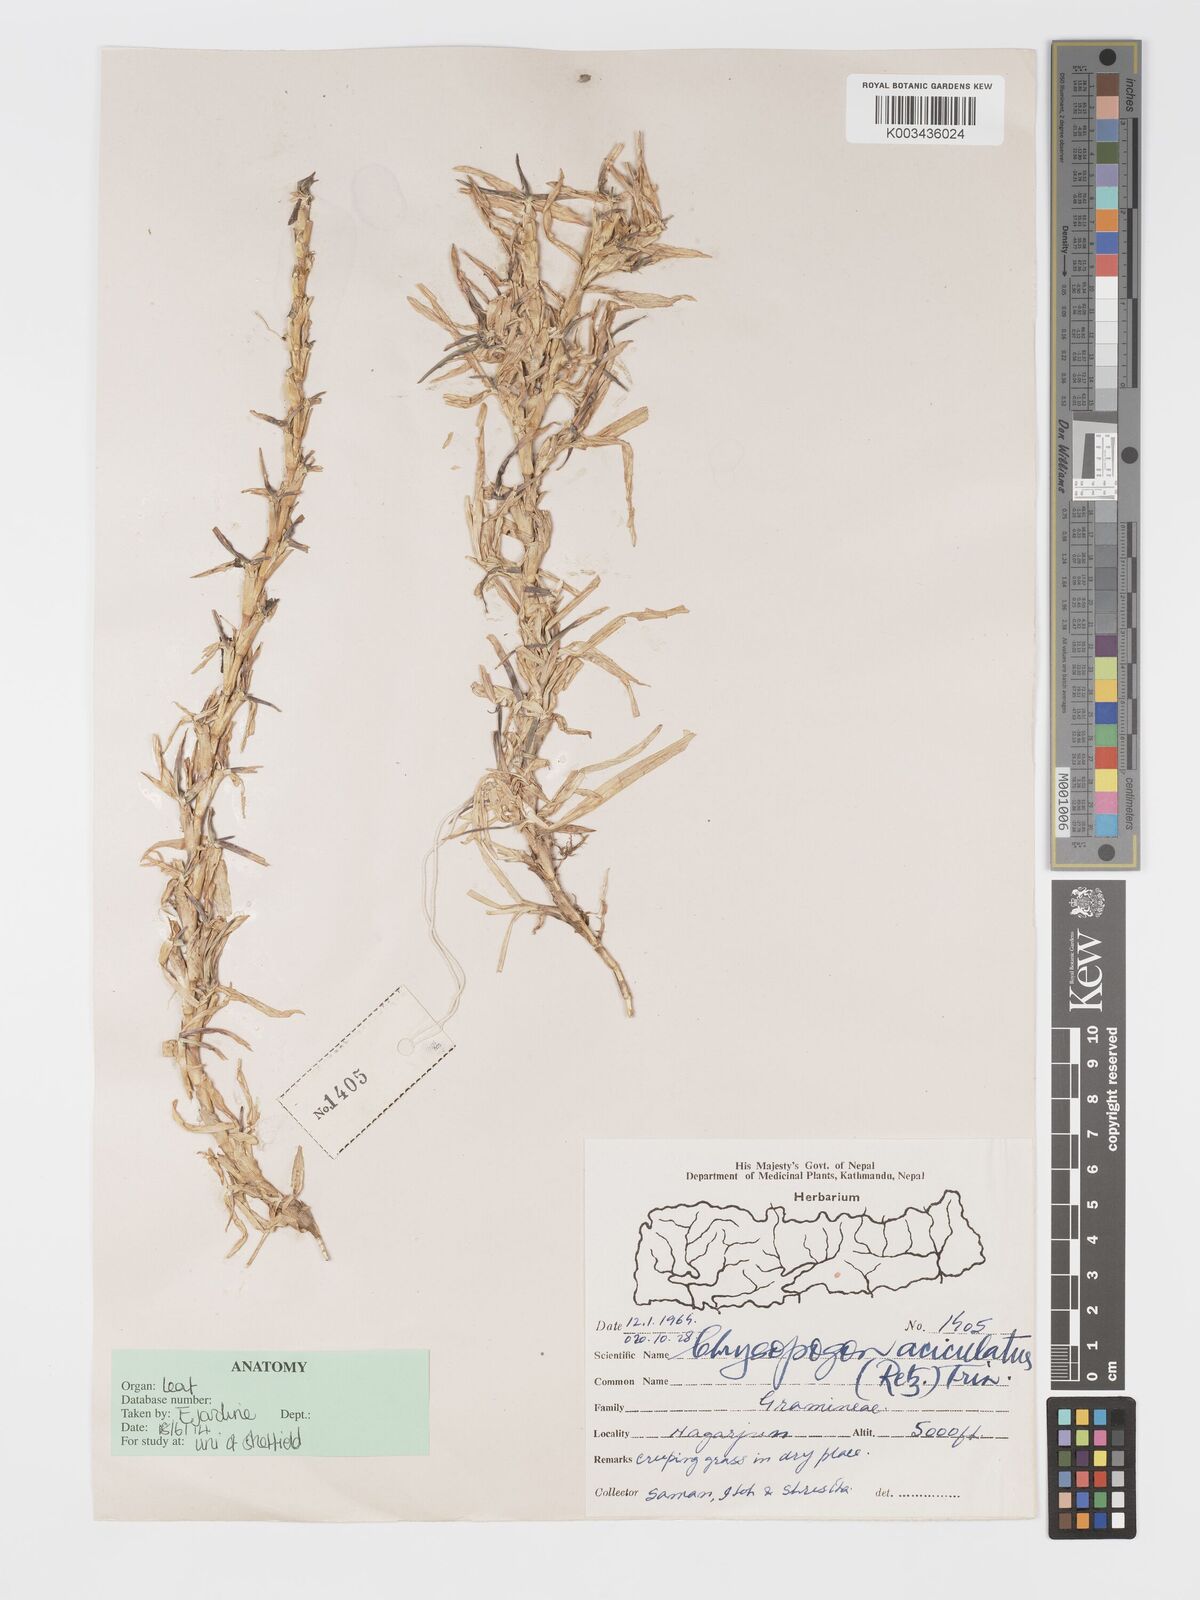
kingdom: Plantae
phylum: Tracheophyta
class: Liliopsida
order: Poales
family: Poaceae
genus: Chrysopogon
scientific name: Chrysopogon aciculatus
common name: Pilipiliula
